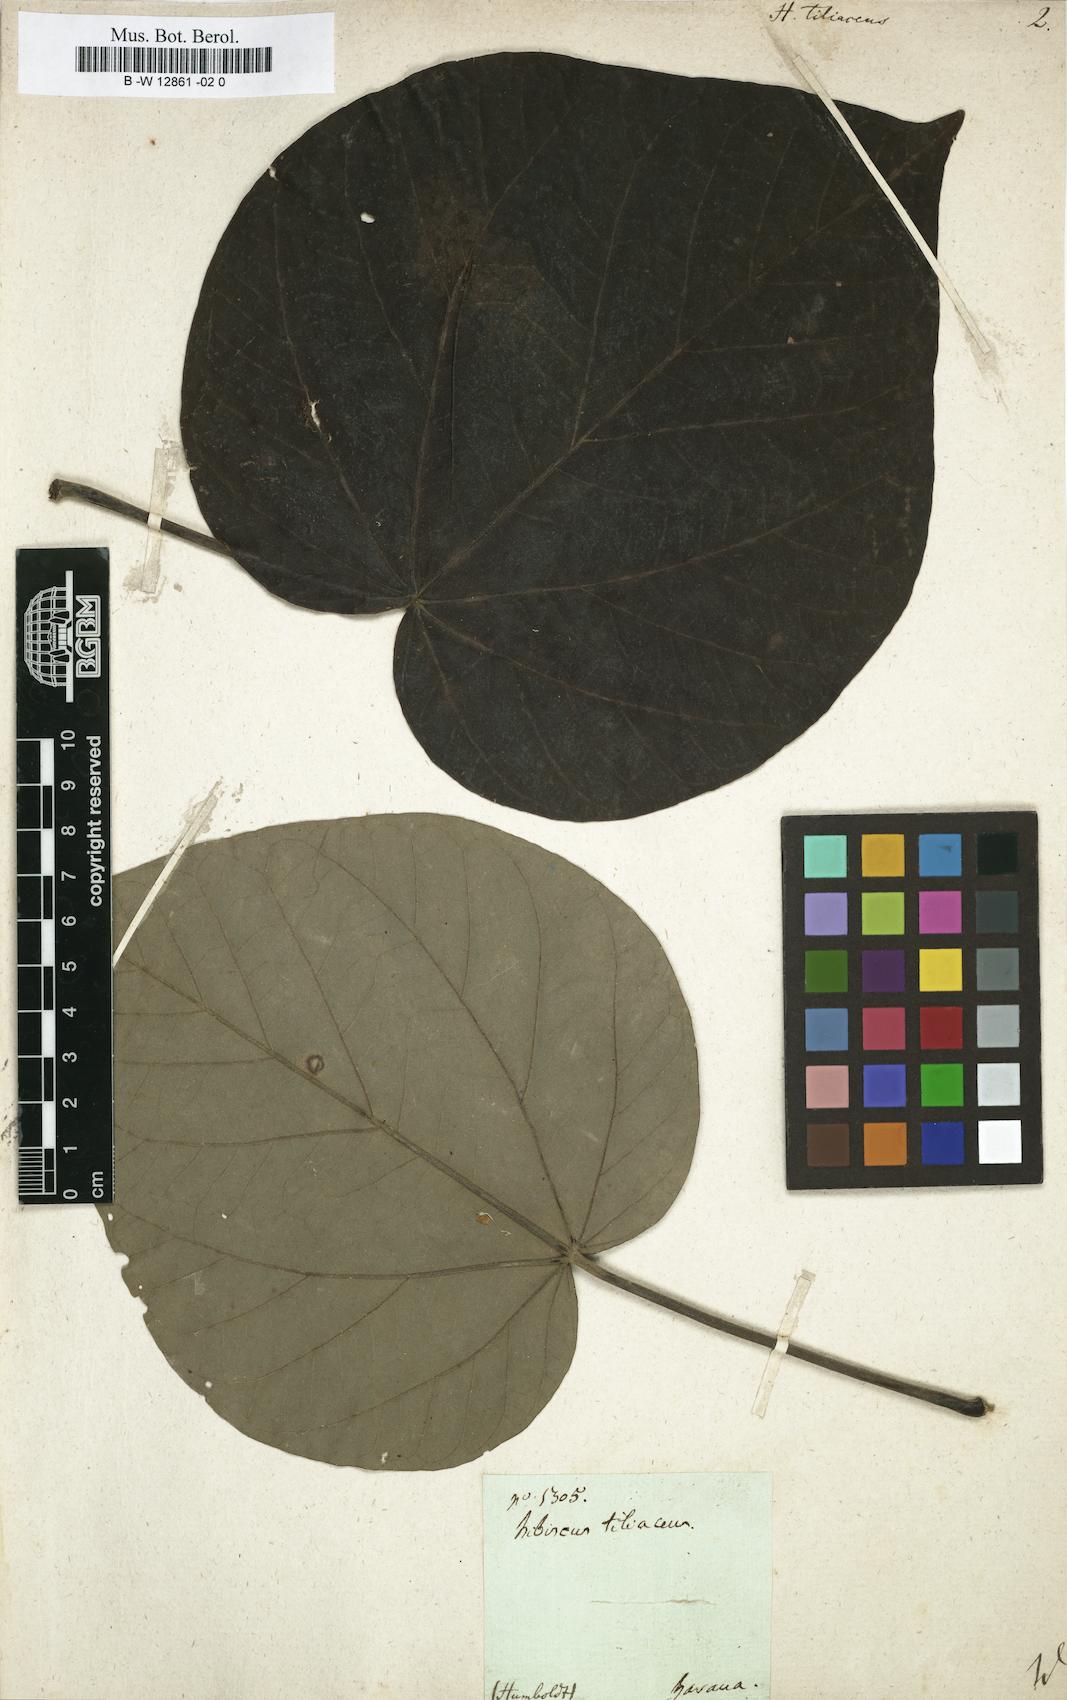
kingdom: Plantae
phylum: Tracheophyta
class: Magnoliopsida
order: Malvales
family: Malvaceae
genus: Talipariti
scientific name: Talipariti tiliaceum
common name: Sea hibiscus
